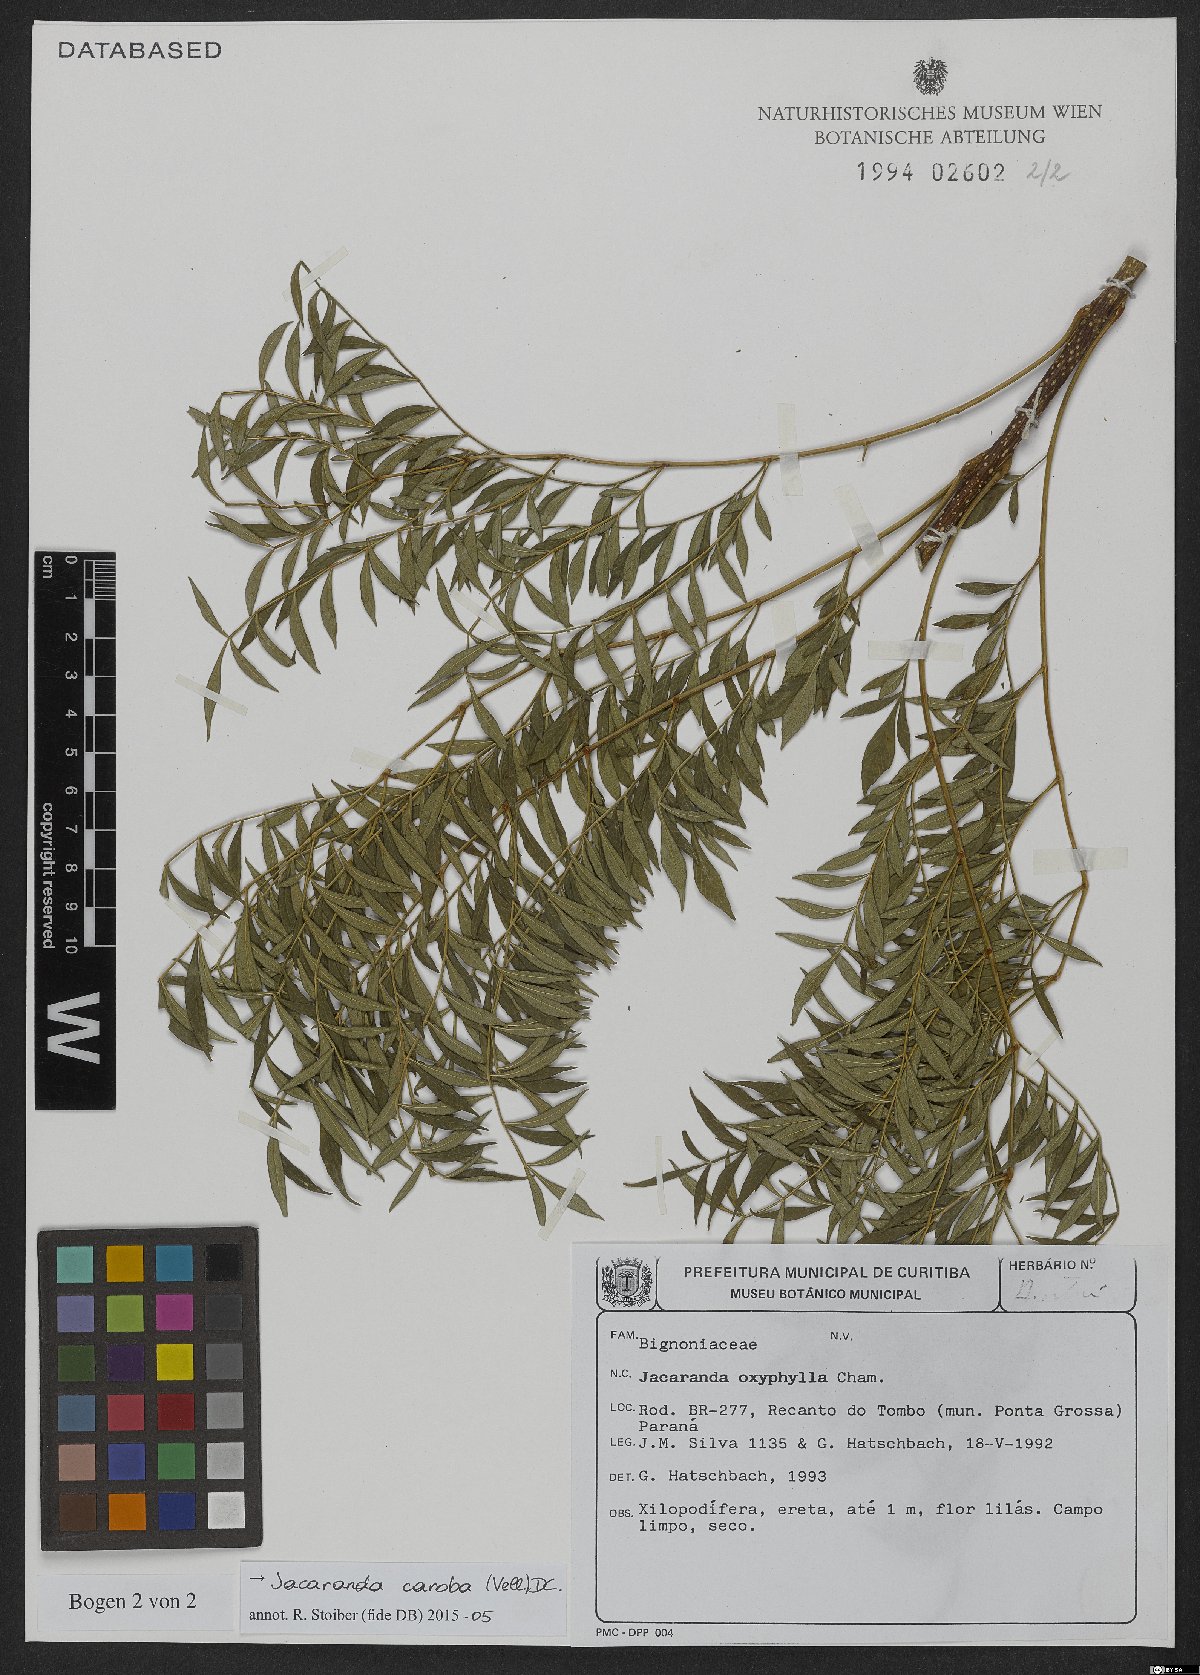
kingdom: Plantae
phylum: Tracheophyta
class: Magnoliopsida
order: Lamiales
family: Bignoniaceae
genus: Jacaranda
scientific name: Jacaranda caroba
